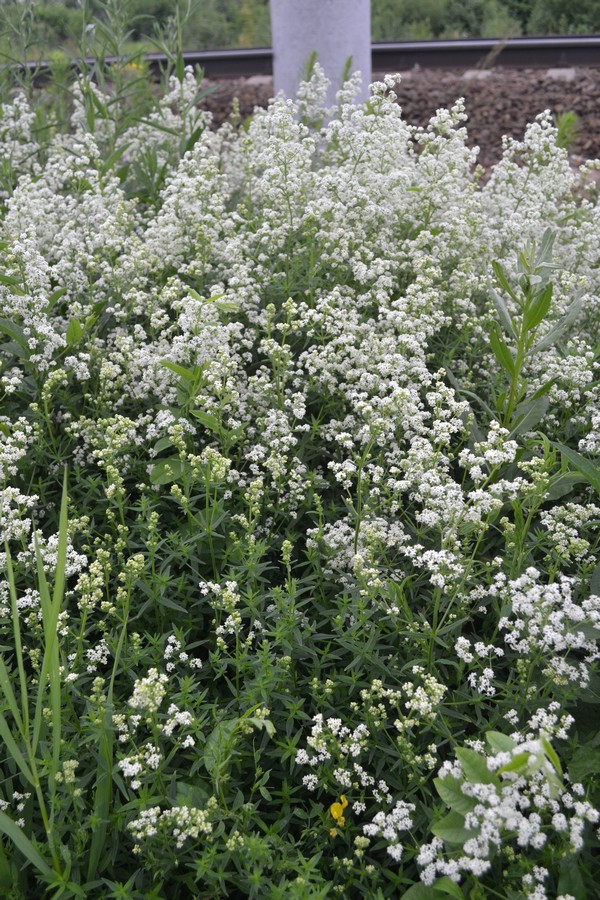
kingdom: Plantae
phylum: Tracheophyta
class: Magnoliopsida
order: Gentianales
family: Rubiaceae
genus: Galium
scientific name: Galium mollugo
